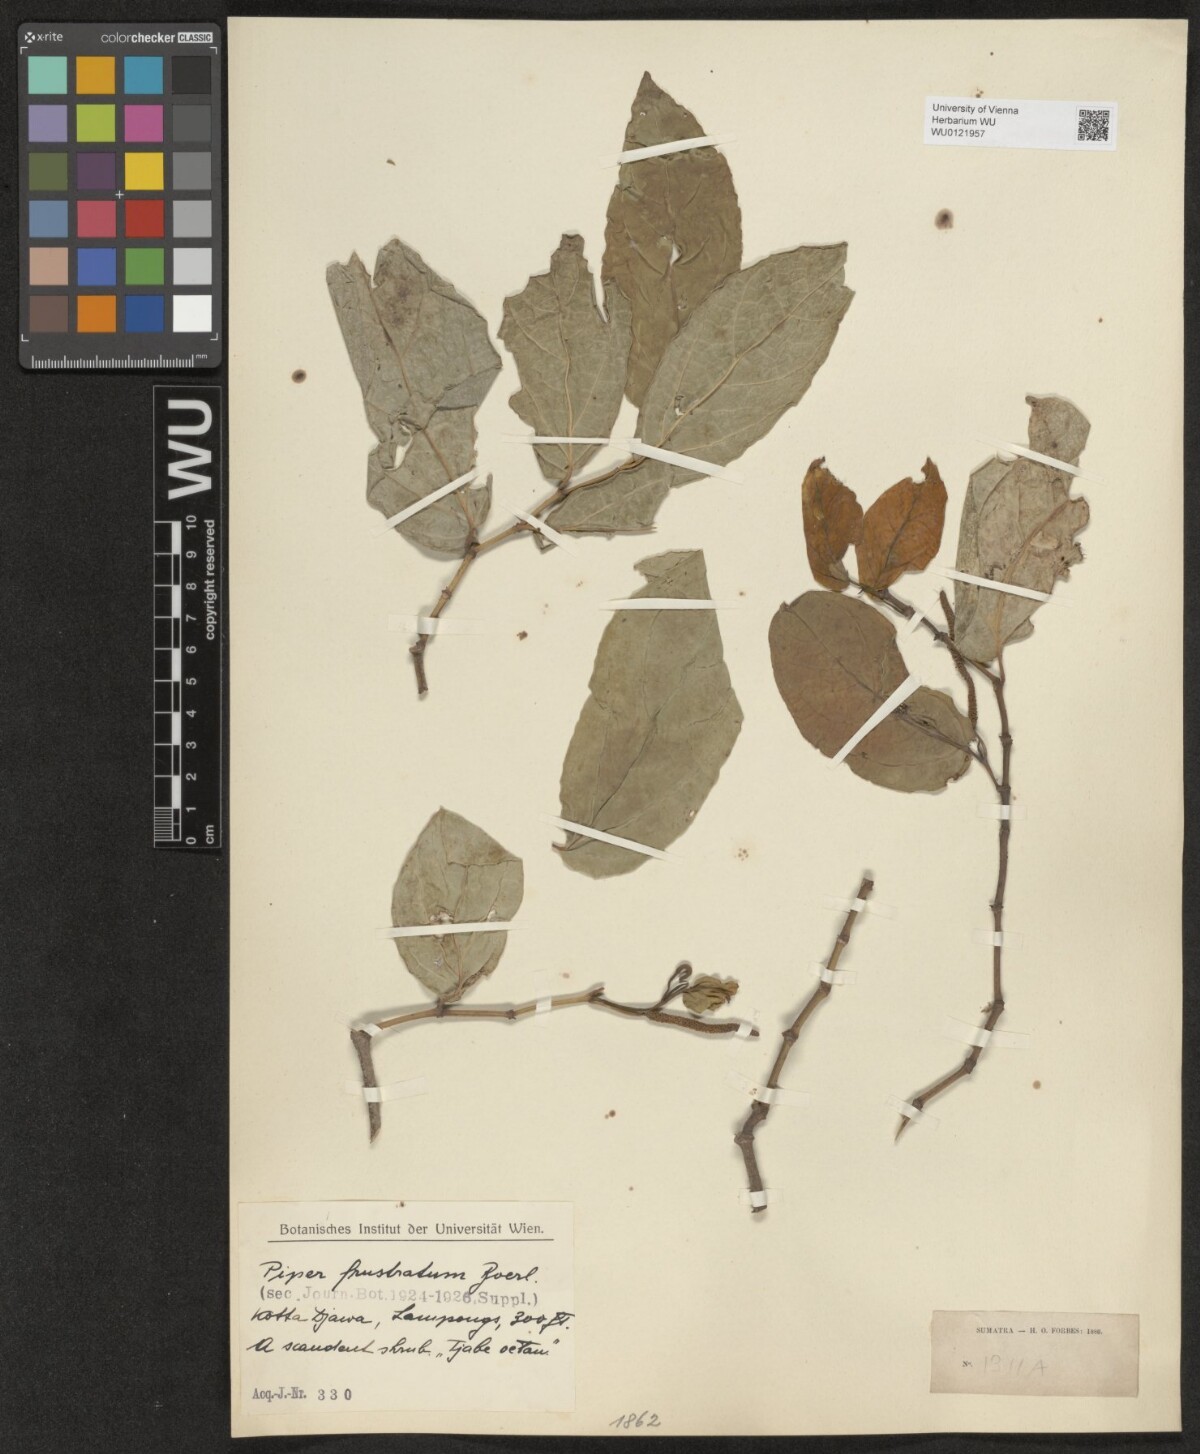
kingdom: Plantae
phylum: Tracheophyta
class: Magnoliopsida
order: Piperales
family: Piperaceae
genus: Piper
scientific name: Piper frustratum
